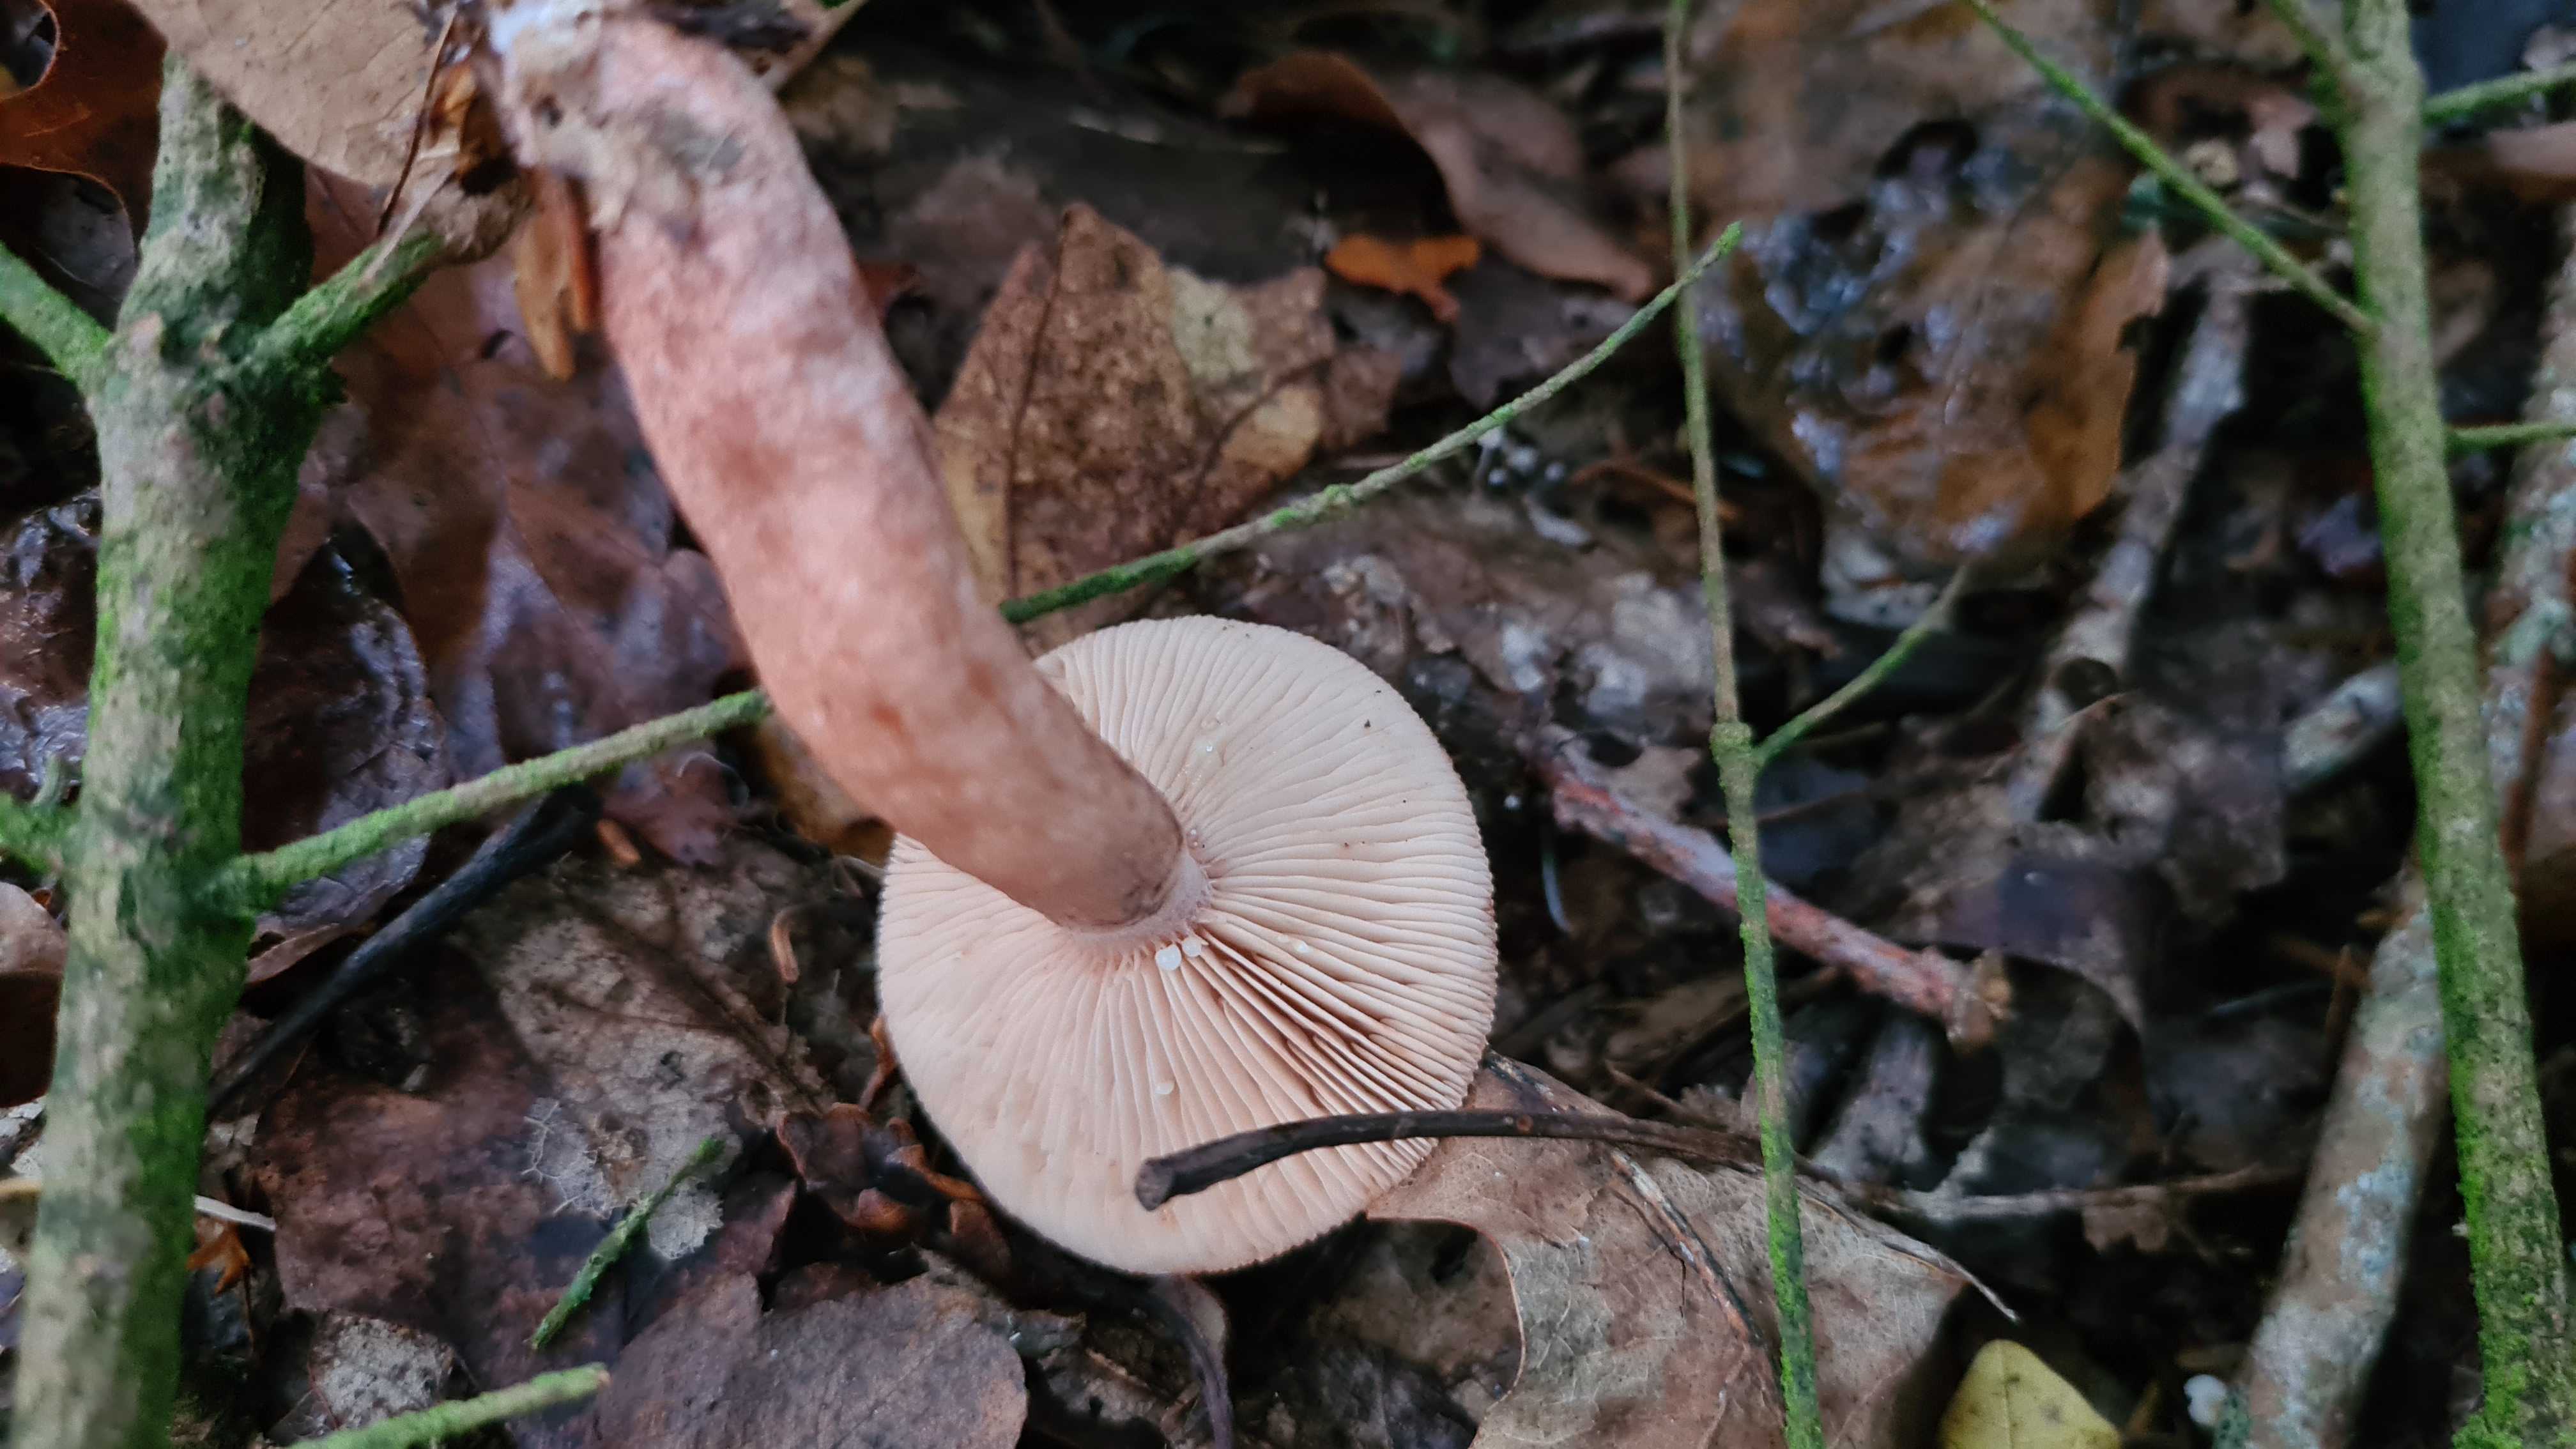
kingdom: Fungi
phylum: Basidiomycota
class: Agaricomycetes
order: Russulales
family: Russulaceae
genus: Lactarius
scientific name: Lactarius quietus
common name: ege-mælkehat
